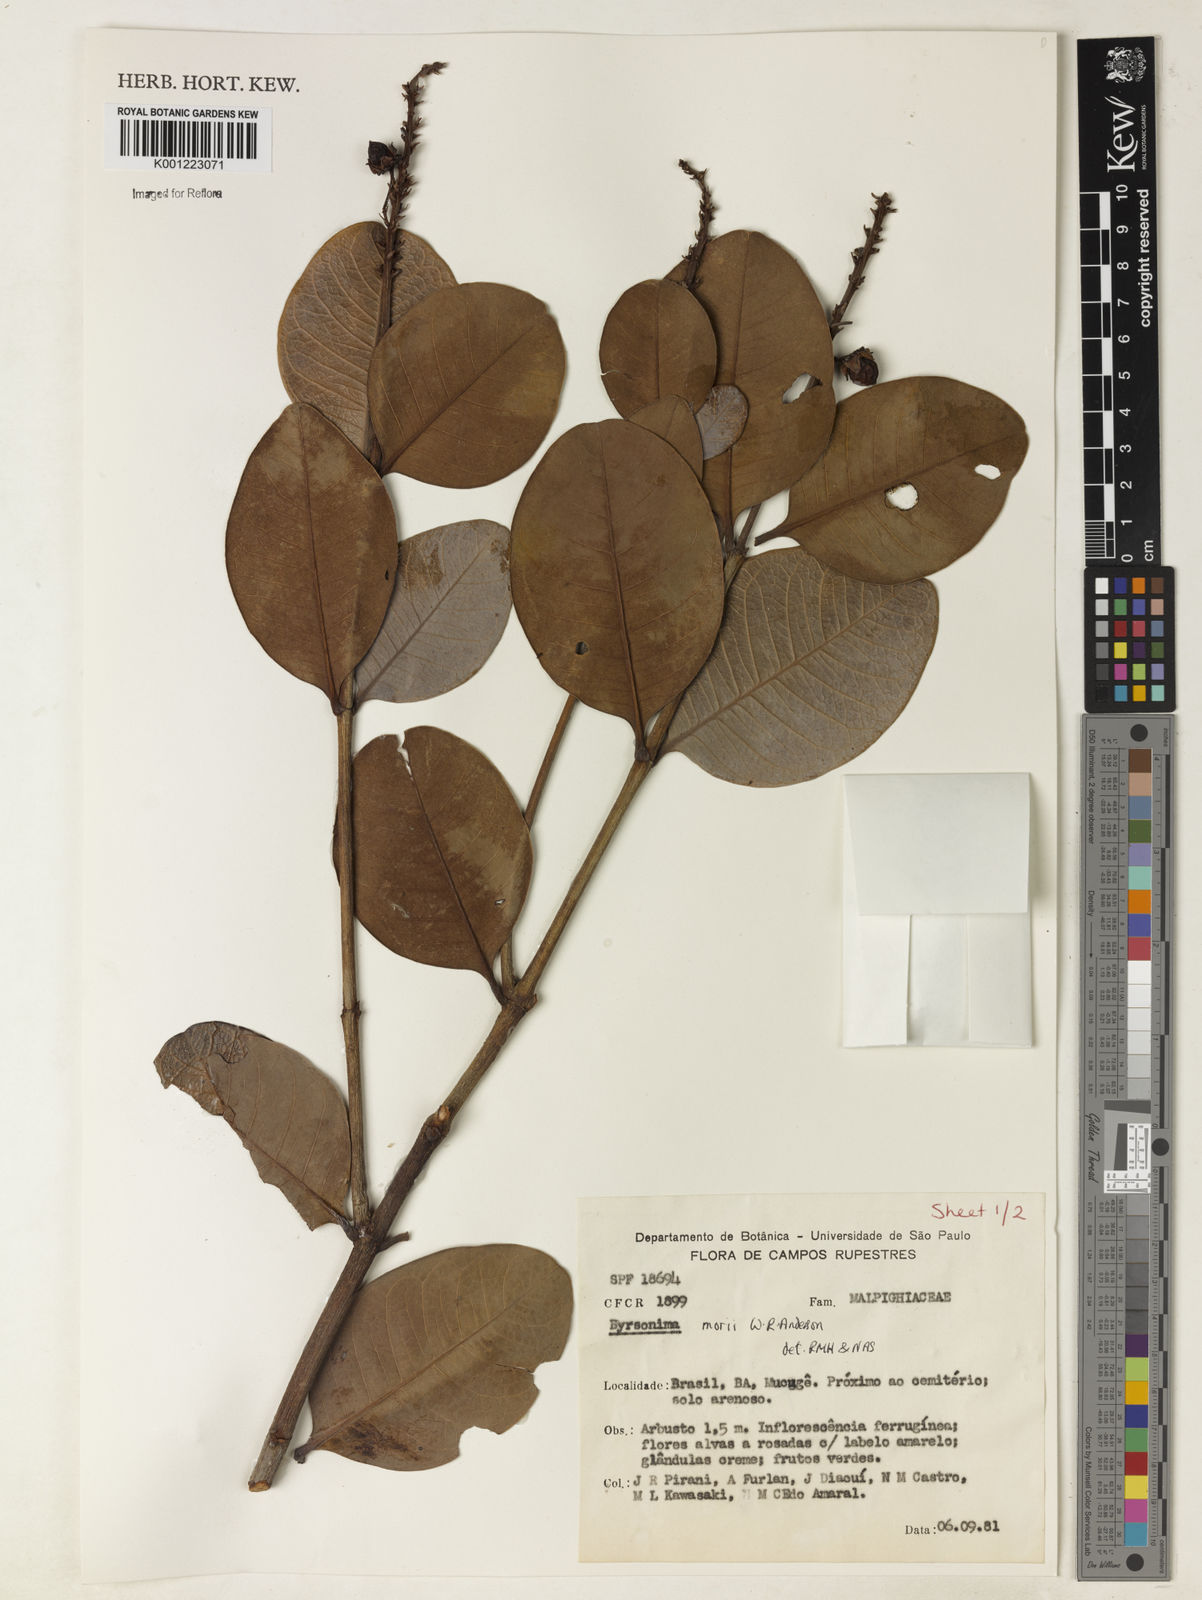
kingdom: Plantae
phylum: Tracheophyta
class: Magnoliopsida
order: Malpighiales
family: Malpighiaceae
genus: Byrsonima
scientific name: Byrsonima morii
